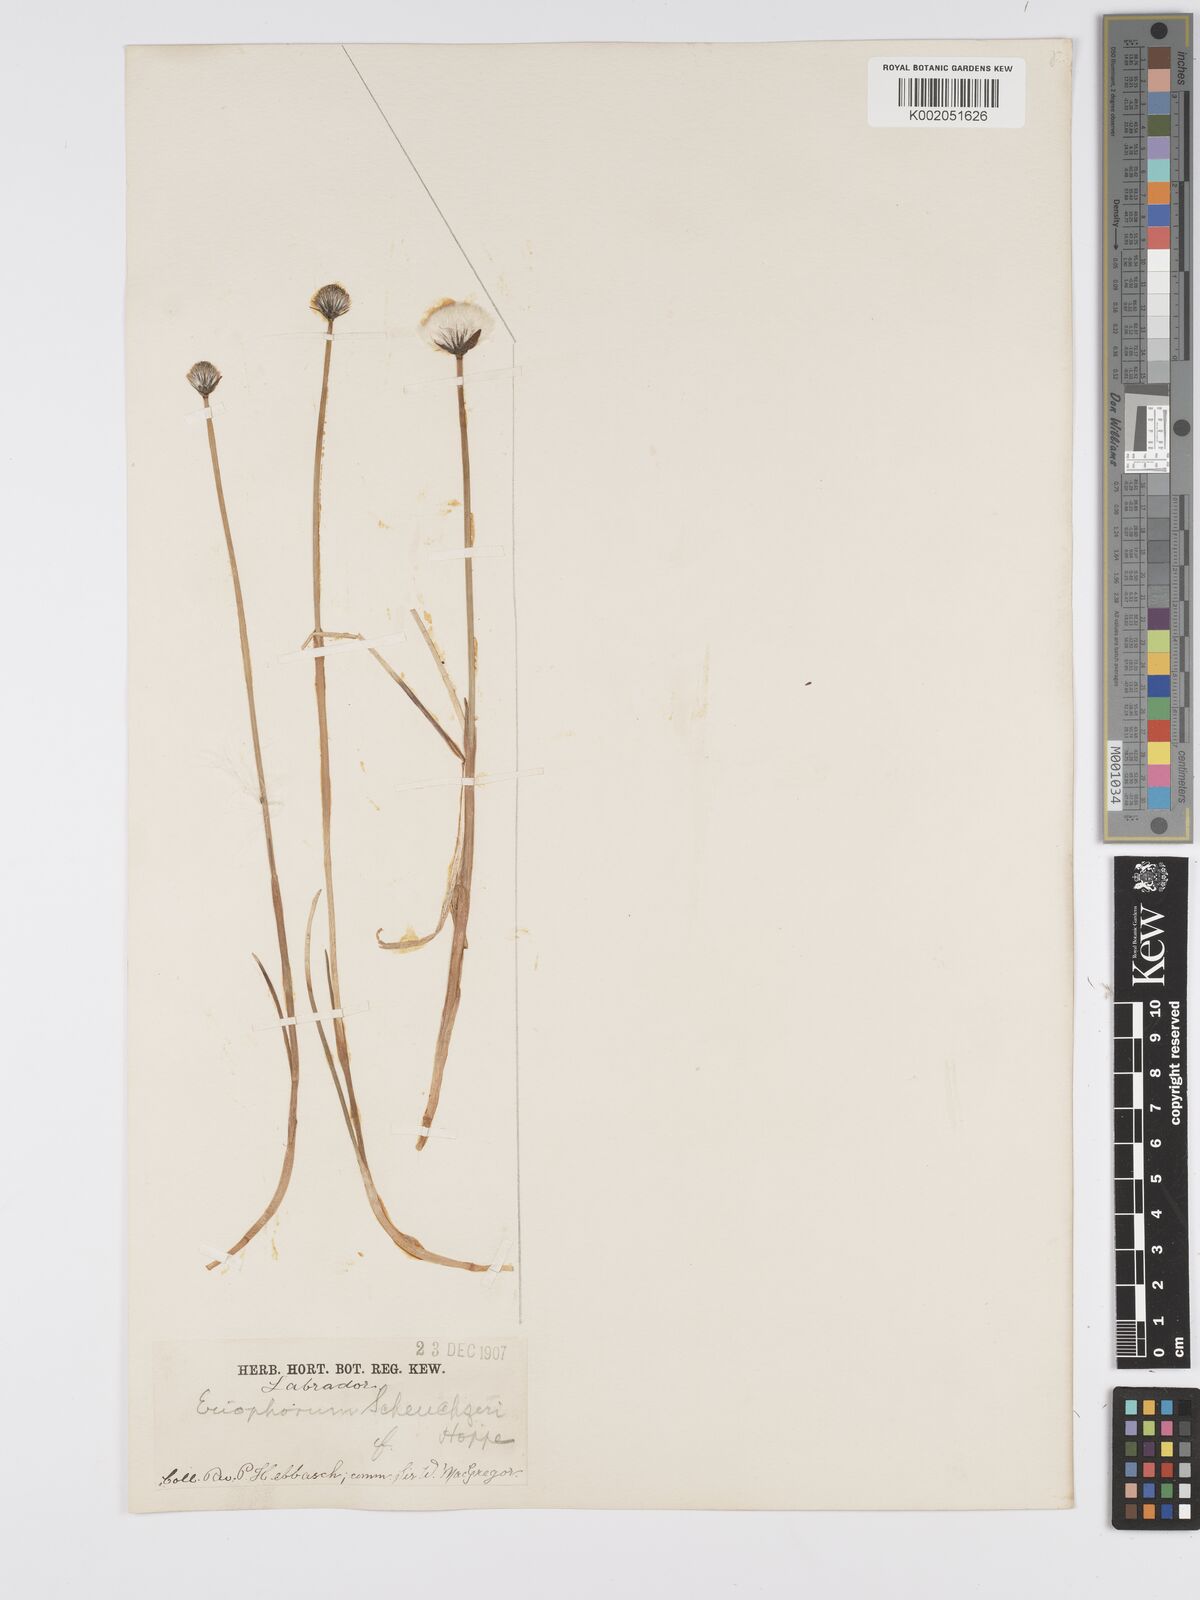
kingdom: Plantae
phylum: Tracheophyta
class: Liliopsida
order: Poales
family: Cyperaceae
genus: Eriophorum
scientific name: Eriophorum scheuchzeri
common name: Scheuchzer's cottongrass
